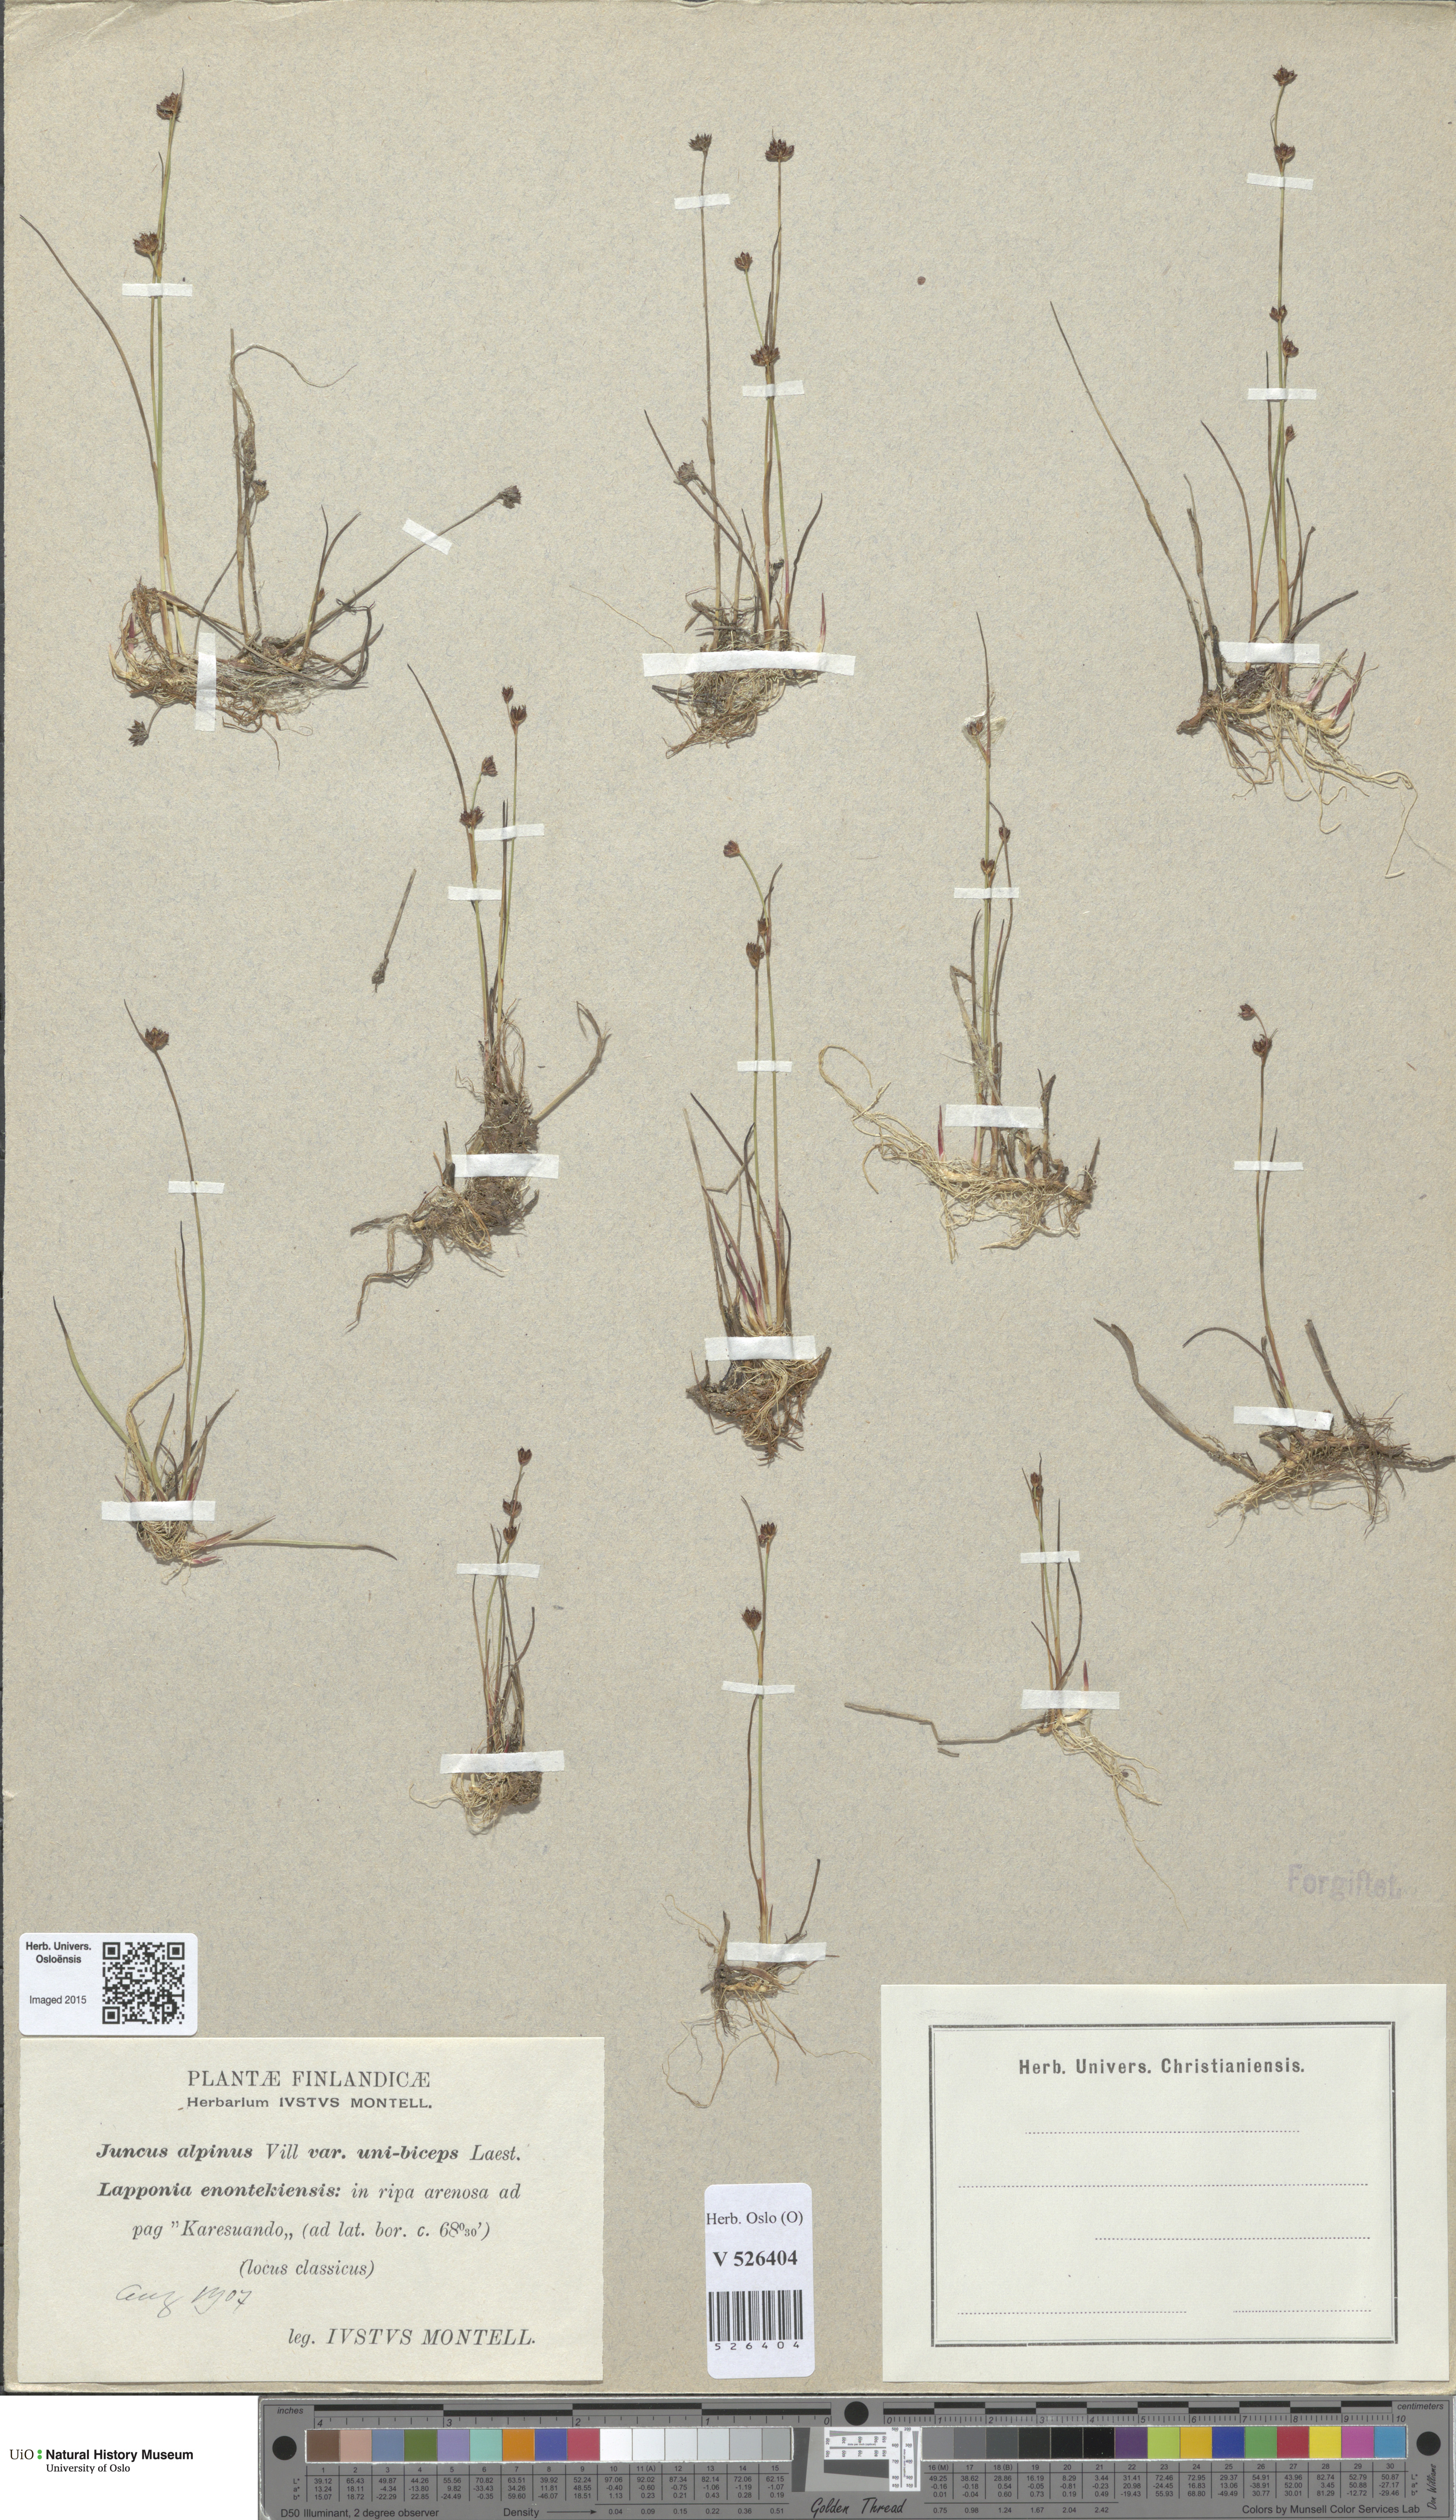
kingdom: Plantae
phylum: Tracheophyta
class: Liliopsida
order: Poales
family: Juncaceae
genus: Juncus
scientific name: Juncus alpinoarticulatus
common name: Alpine rush
